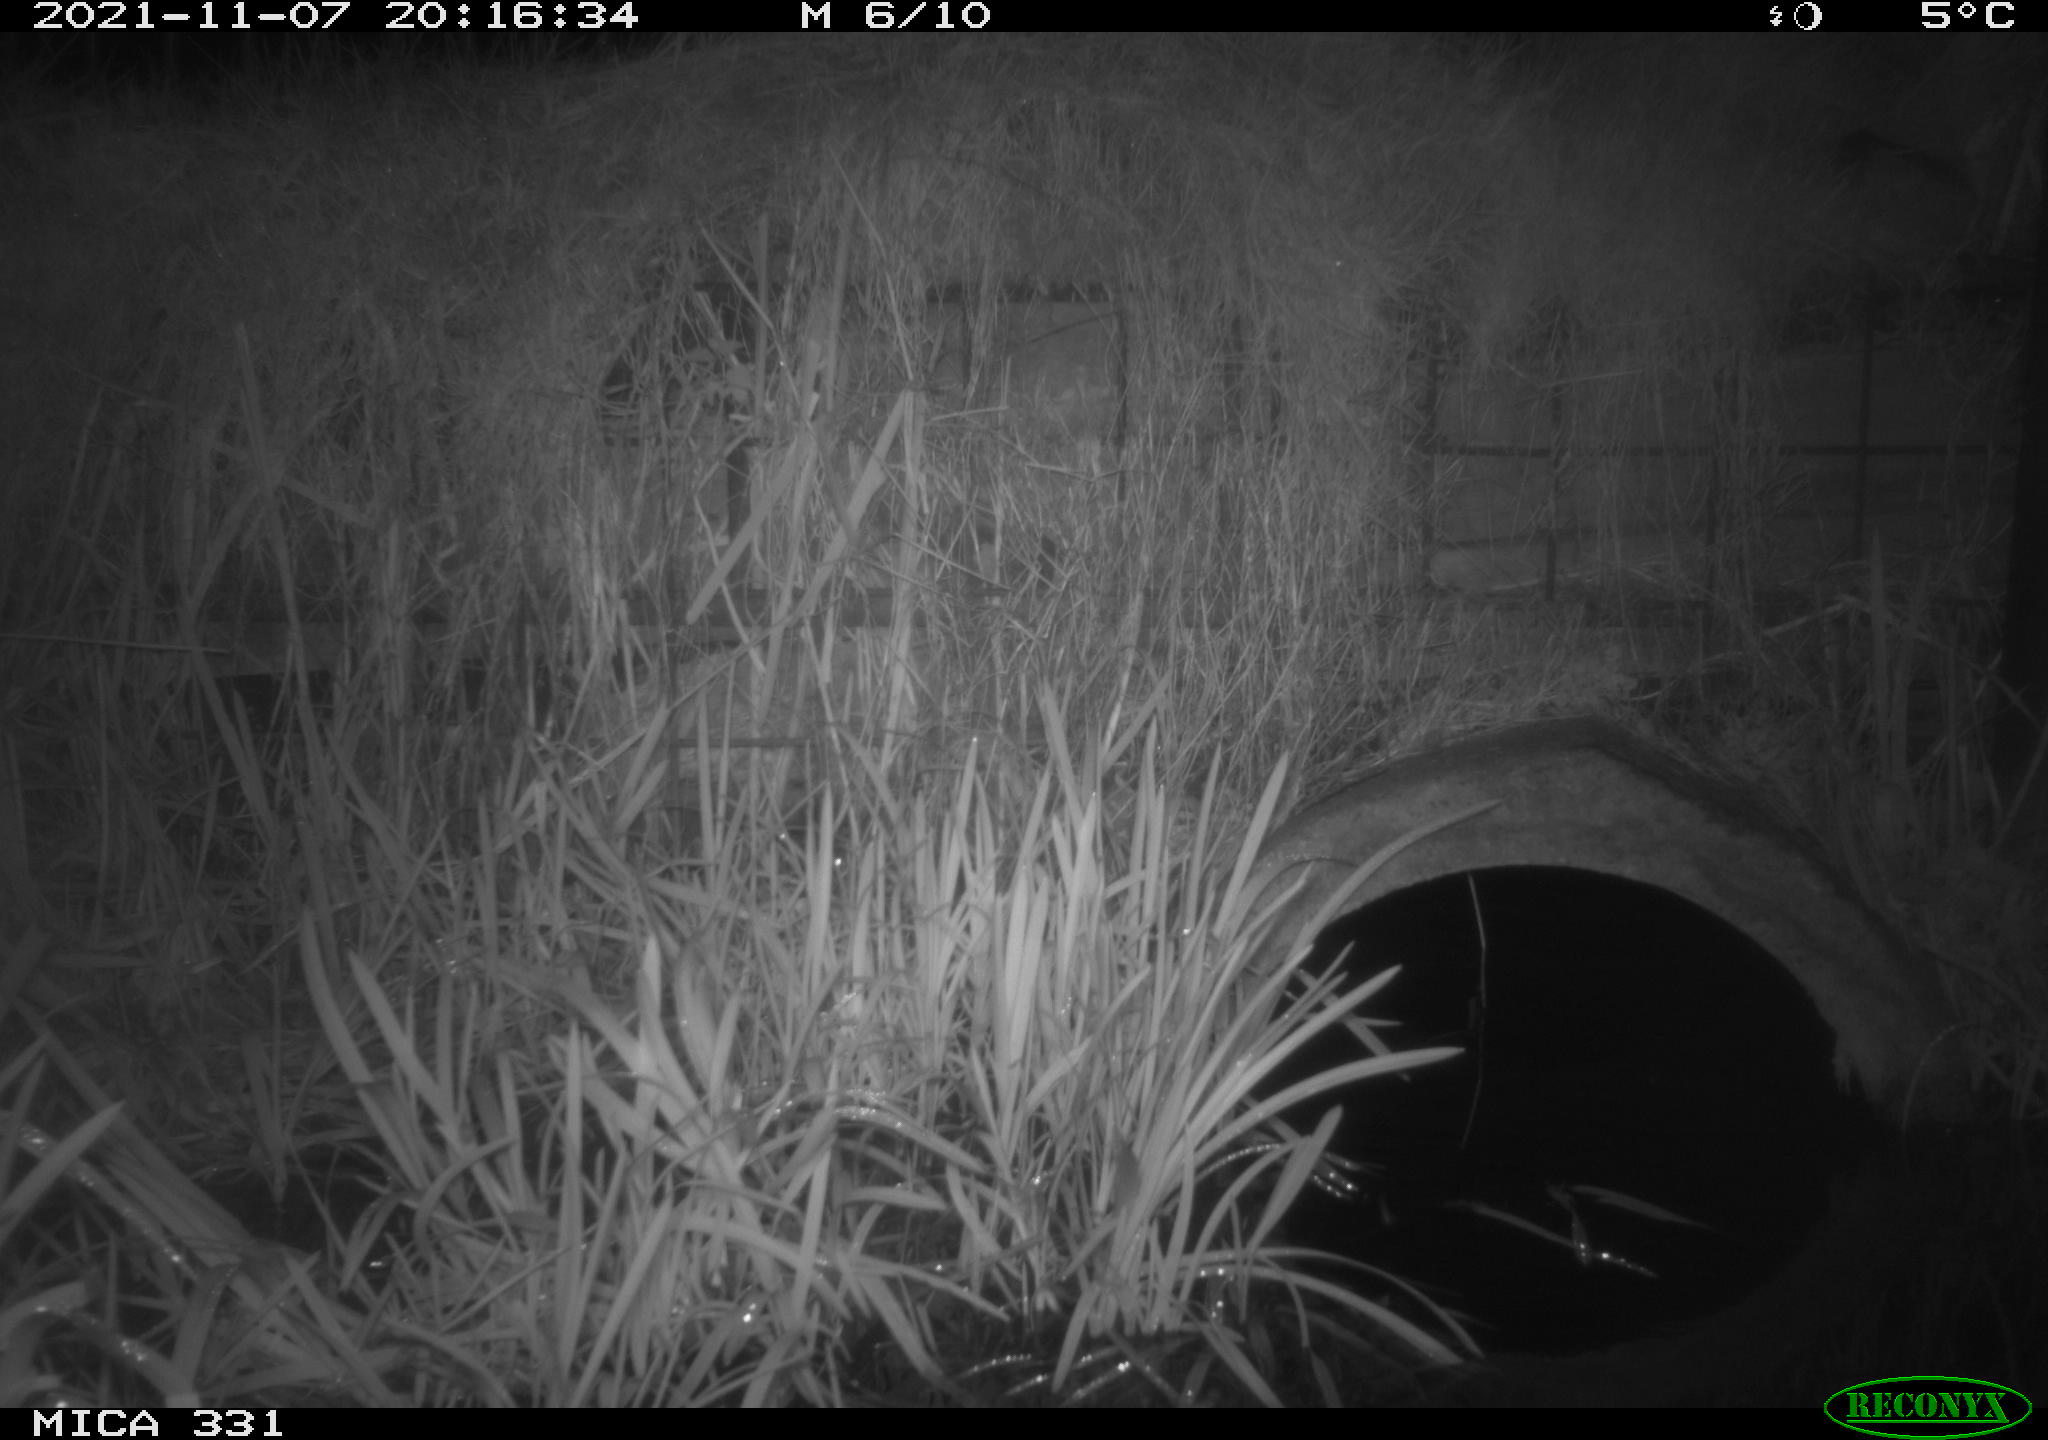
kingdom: Animalia
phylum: Chordata
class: Mammalia
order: Rodentia
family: Muridae
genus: Rattus
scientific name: Rattus norvegicus
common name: Brown rat
